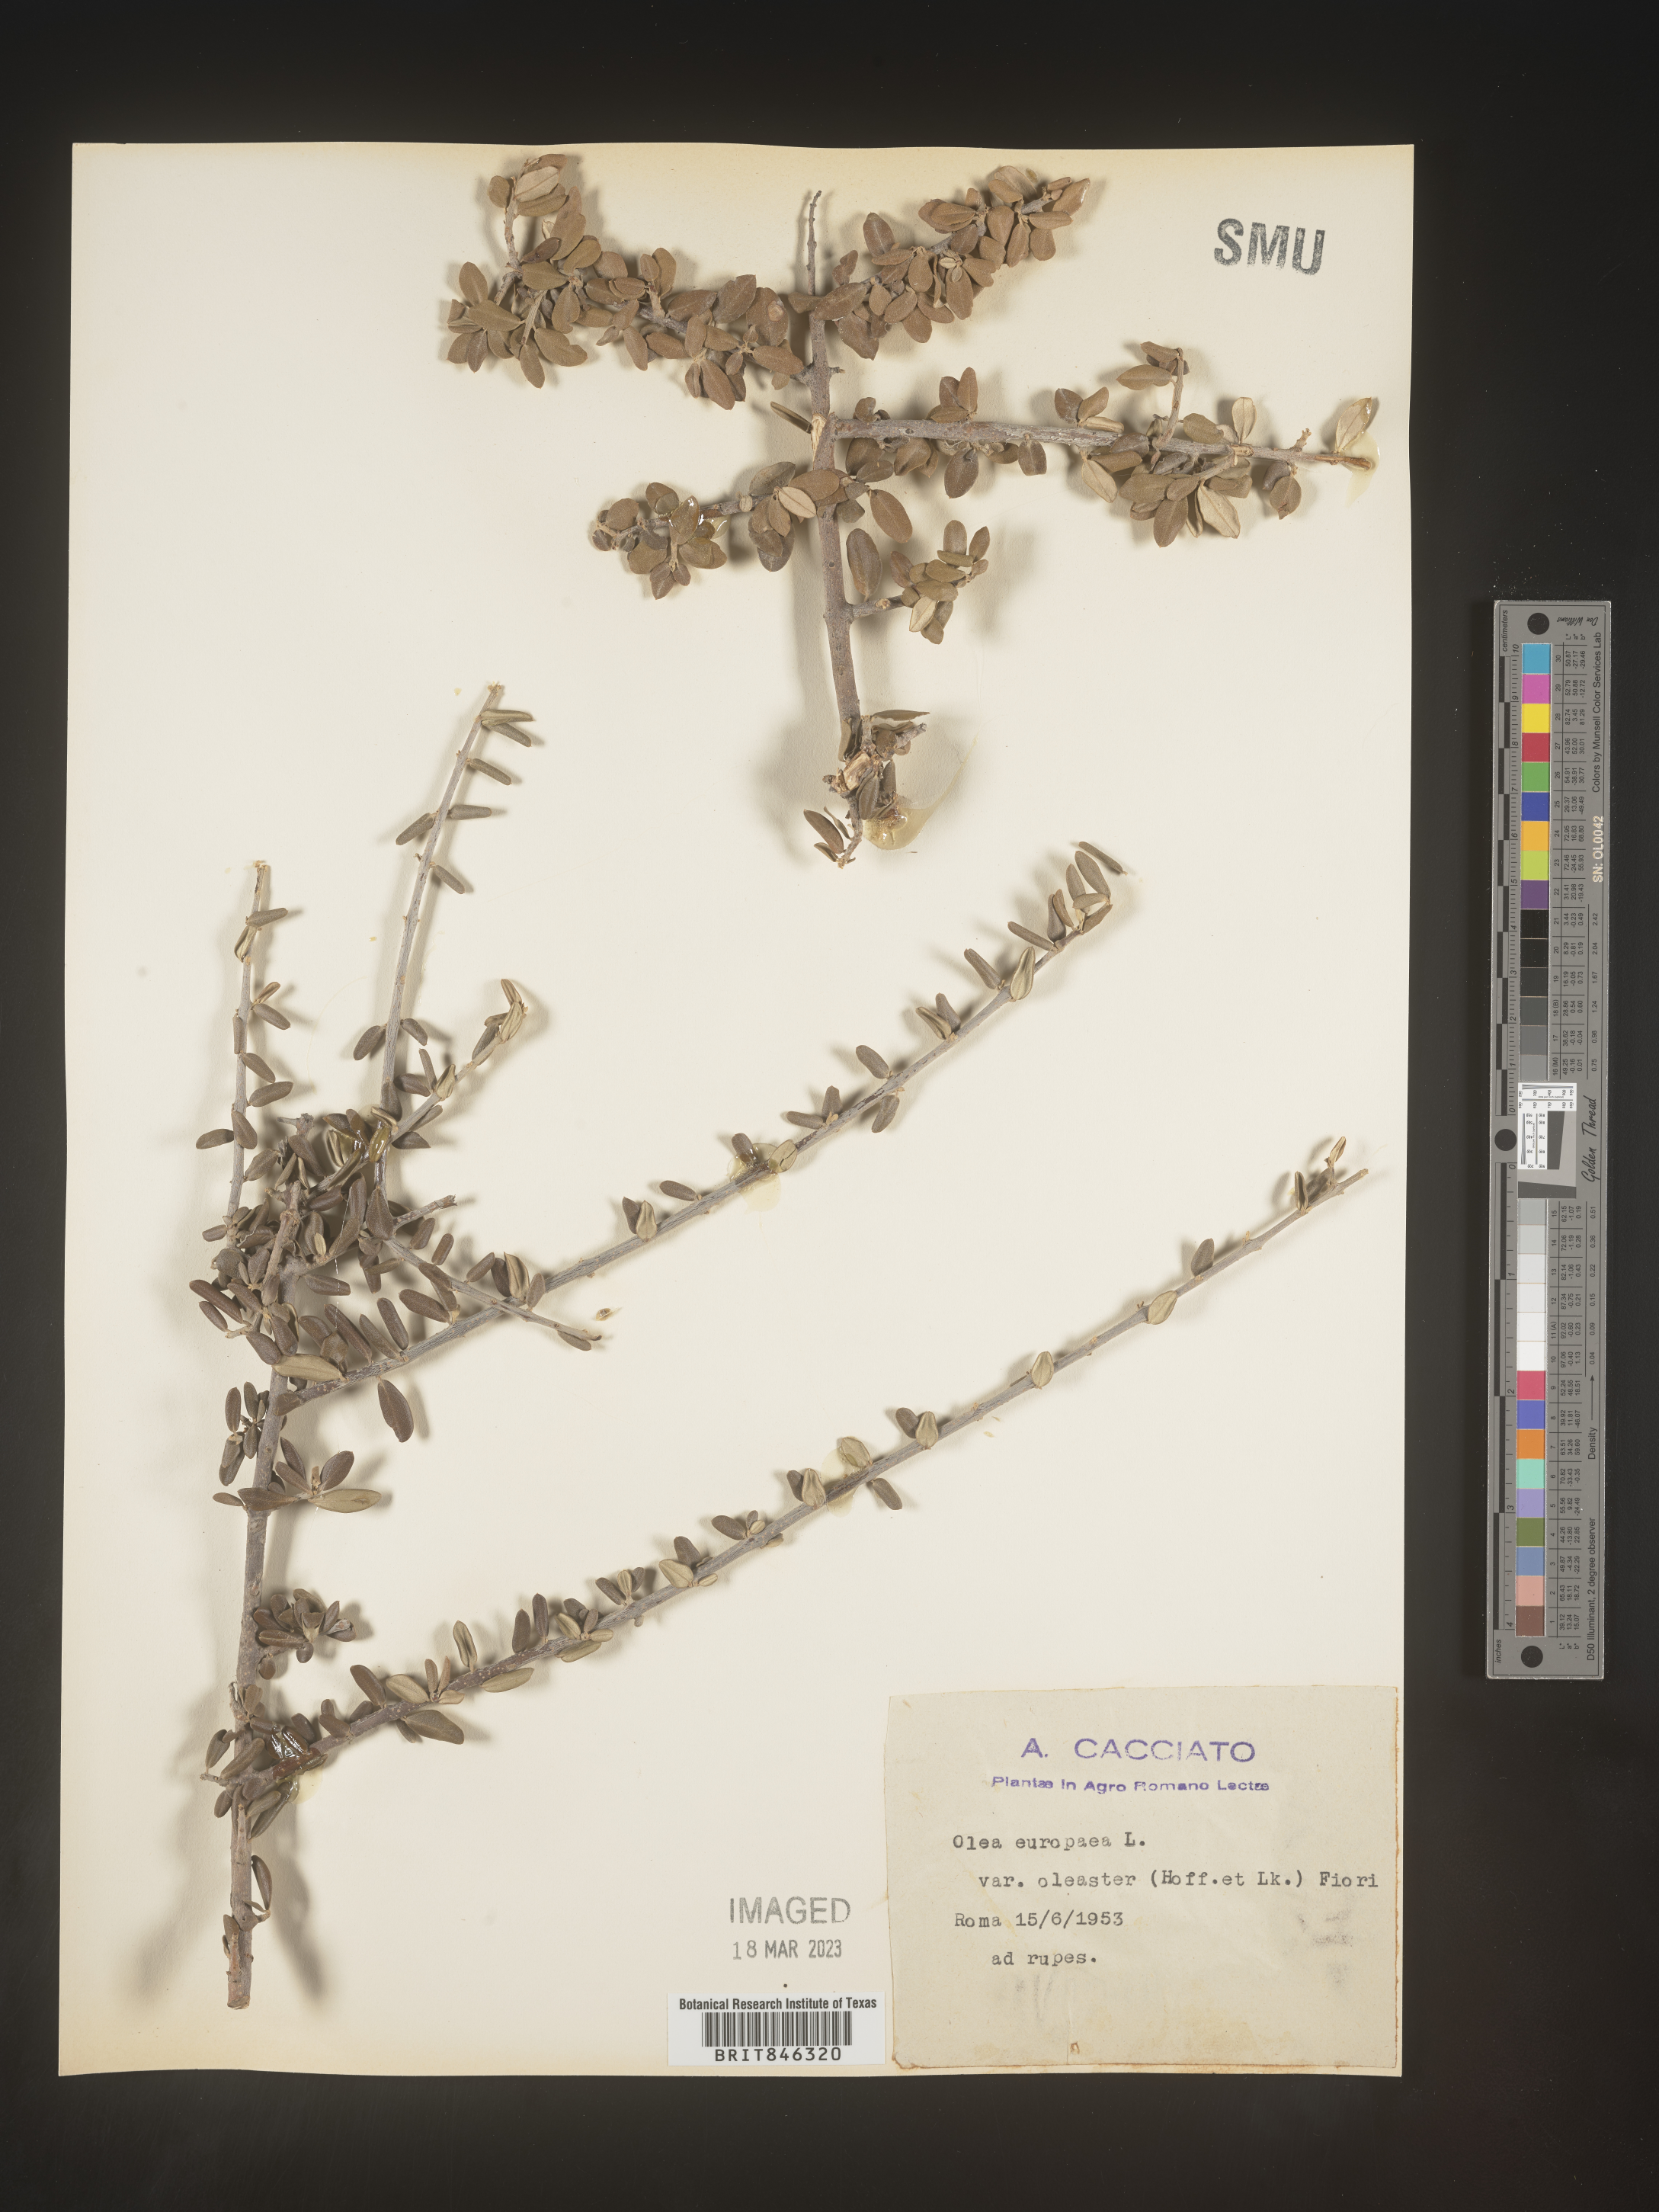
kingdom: Plantae
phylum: Tracheophyta
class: Magnoliopsida
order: Lamiales
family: Oleaceae
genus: Olea
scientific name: Olea
